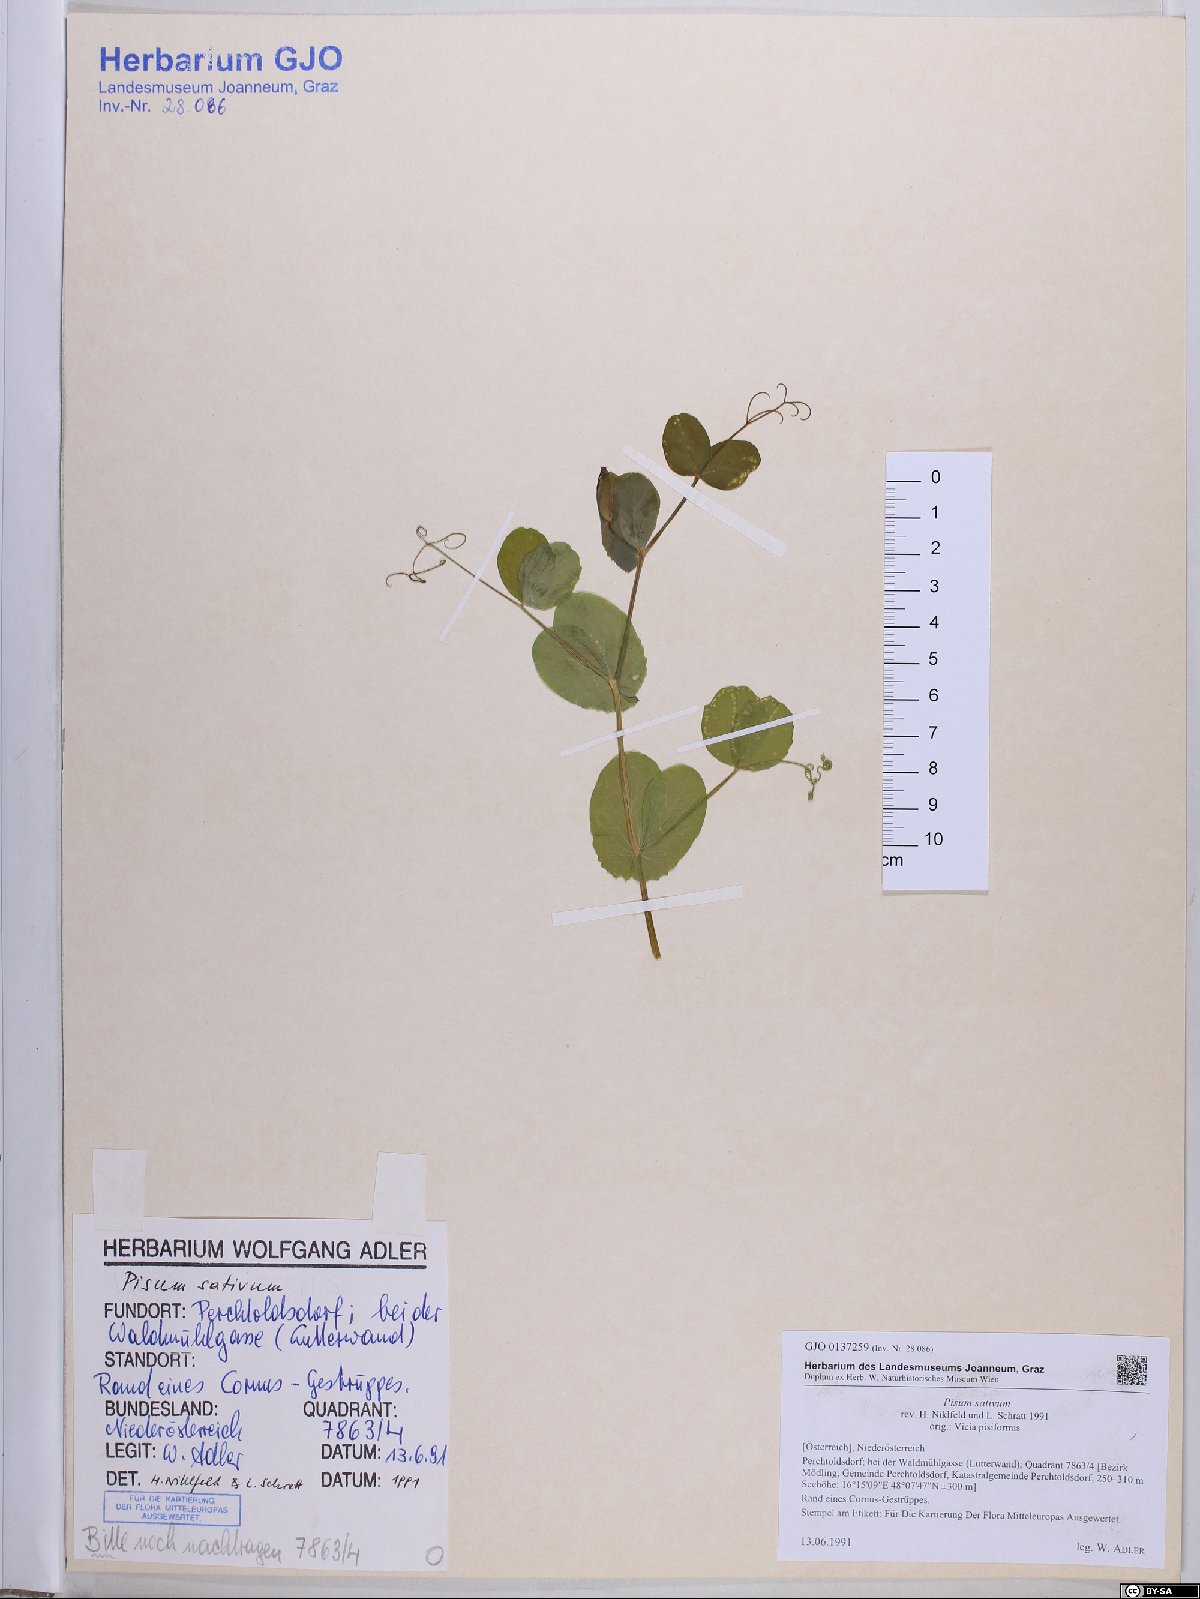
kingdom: Plantae
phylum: Tracheophyta
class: Magnoliopsida
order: Fabales
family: Fabaceae
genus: Lathyrus
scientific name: Lathyrus oleraceus
